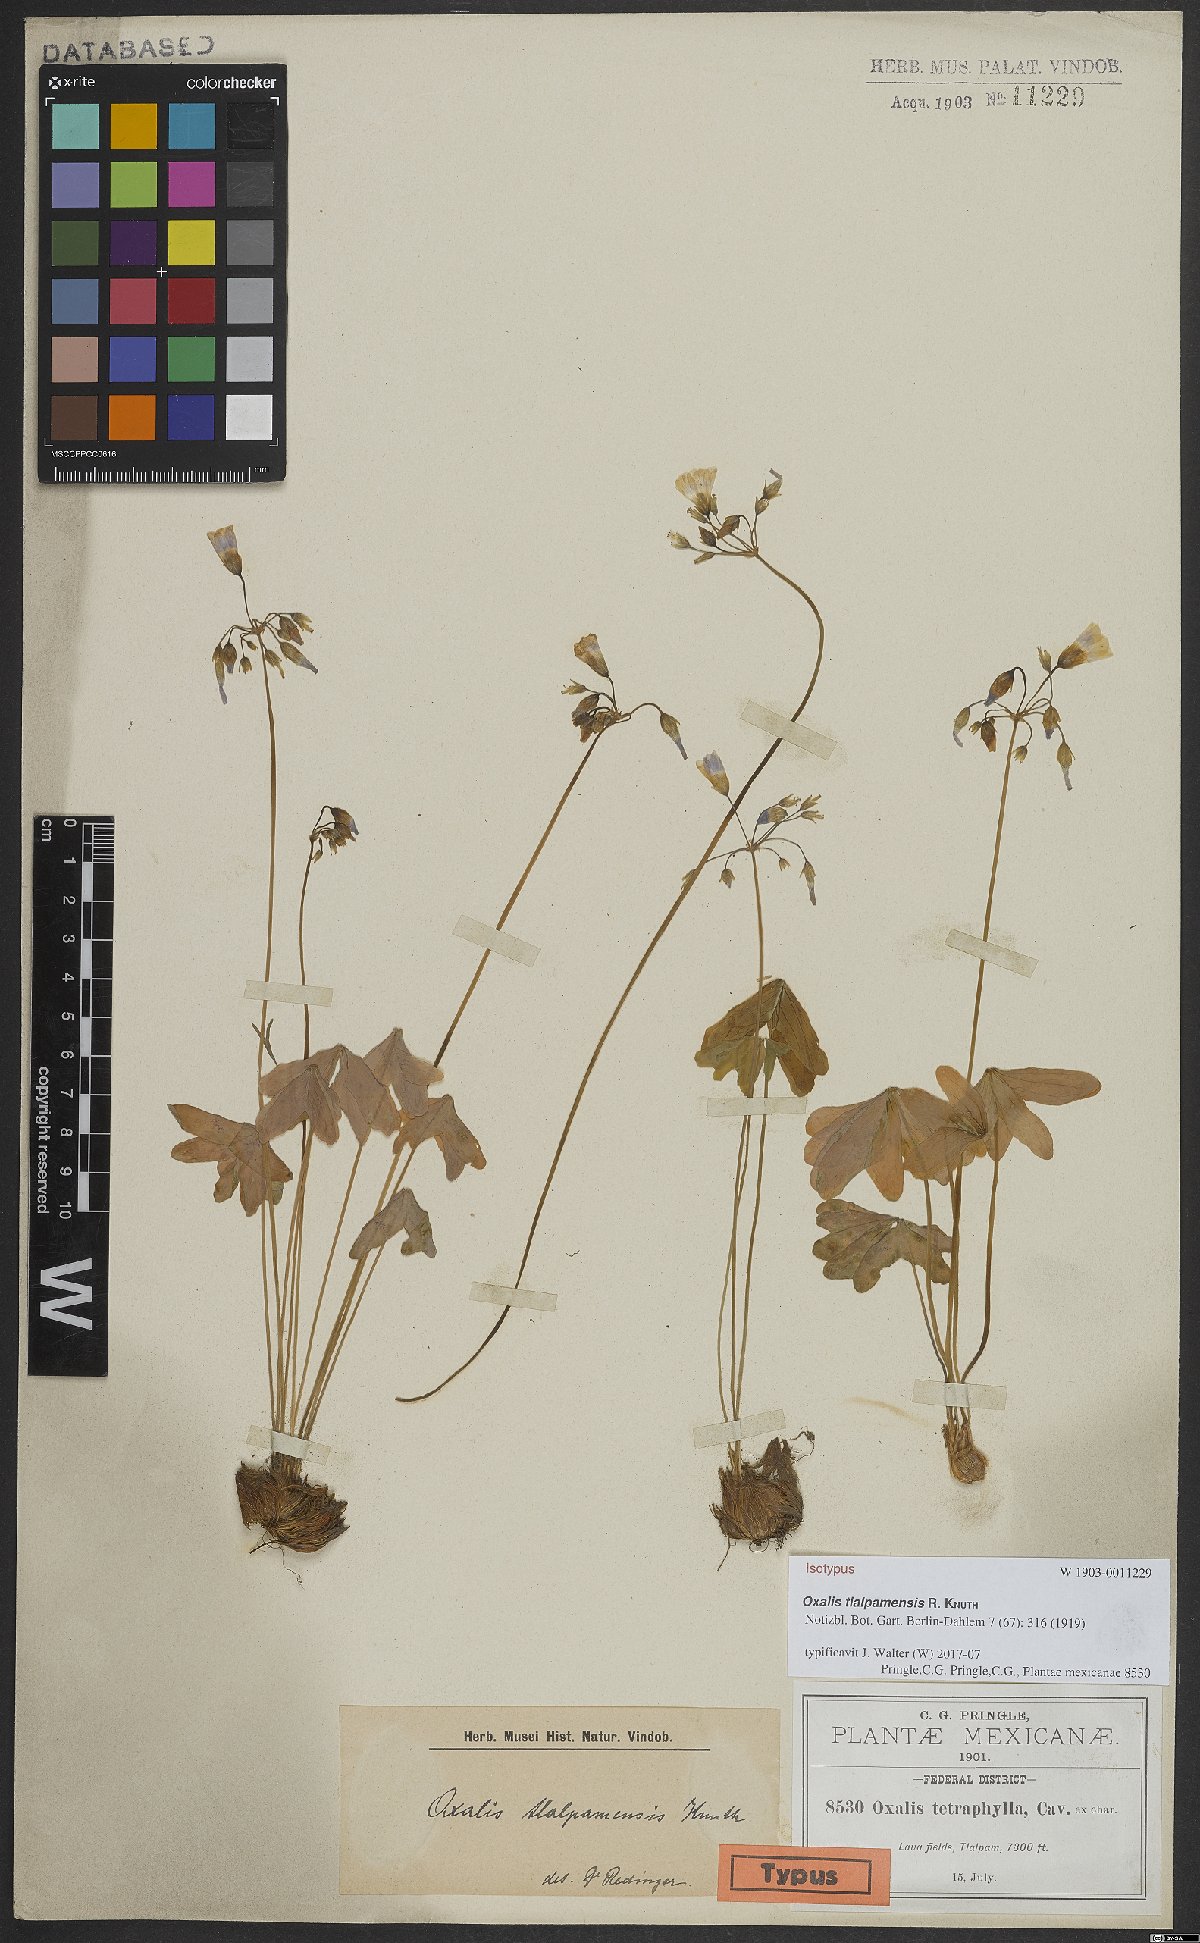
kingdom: Plantae
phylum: Tracheophyta
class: Magnoliopsida
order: Oxalidales
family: Oxalidaceae
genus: Oxalis
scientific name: Oxalis tetraphylla
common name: Four-leaved pink-sorrel
